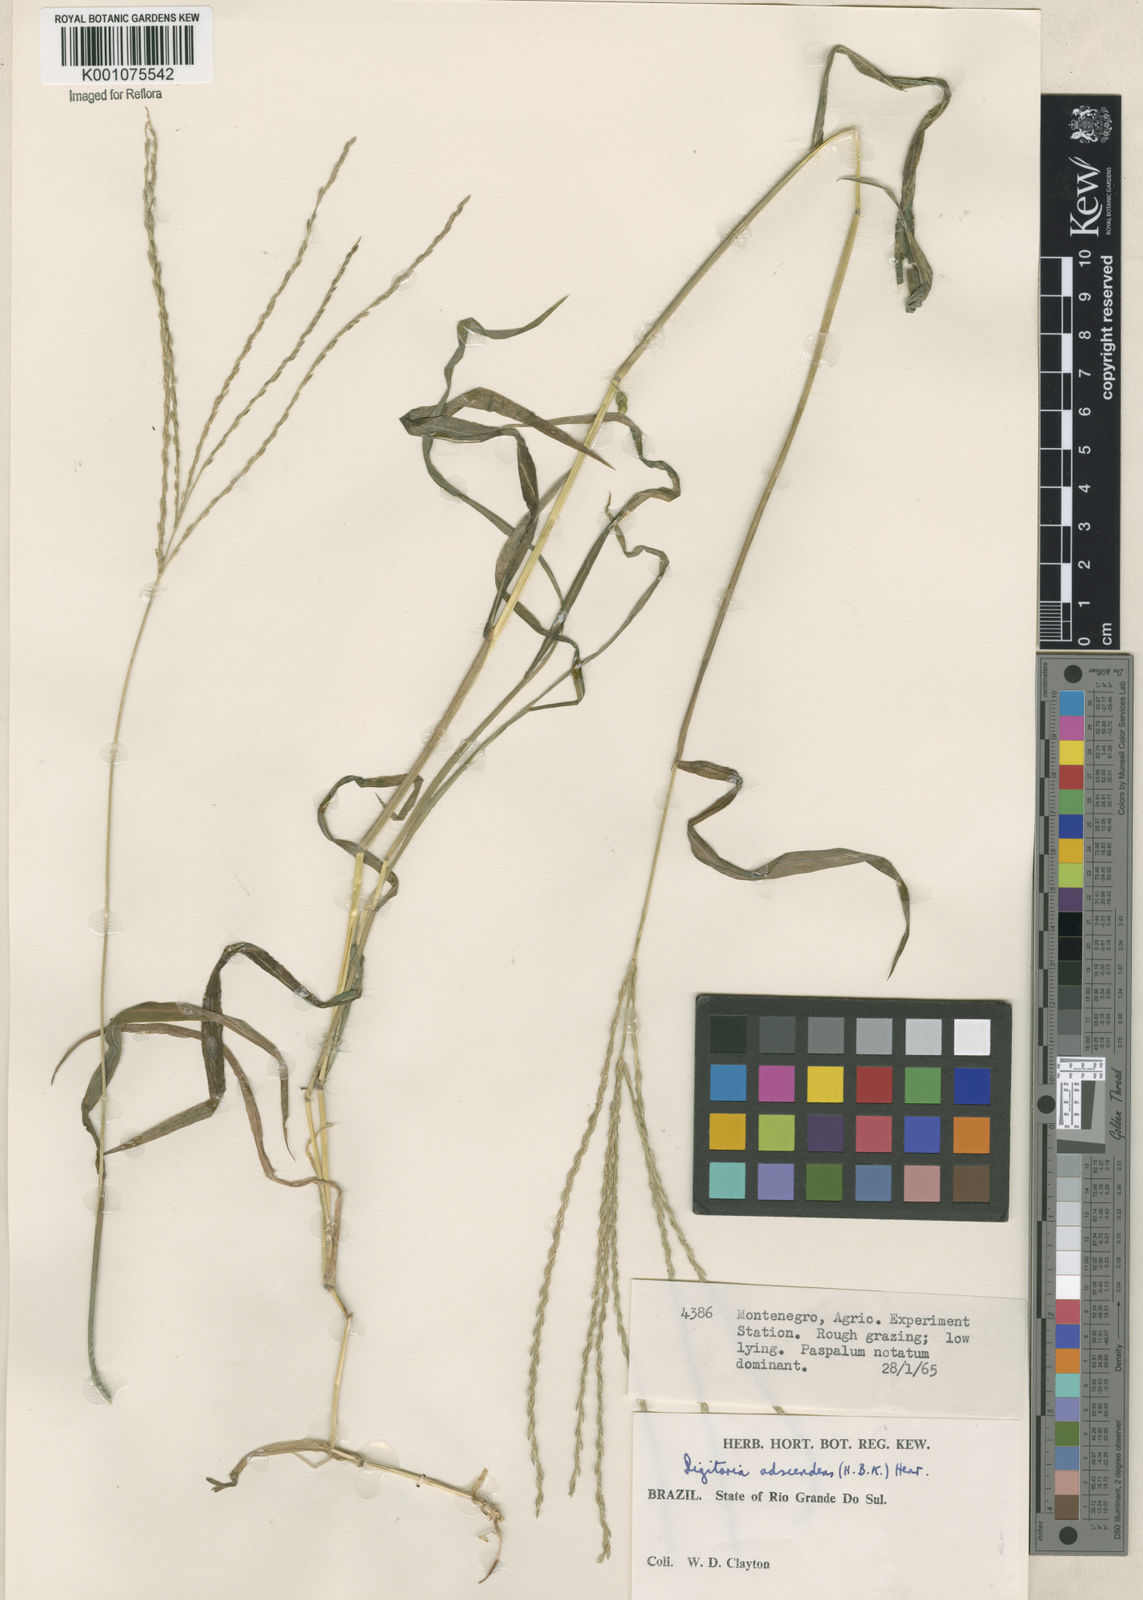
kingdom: Plantae
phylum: Tracheophyta
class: Liliopsida
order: Poales
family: Poaceae
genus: Digitaria
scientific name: Digitaria ciliaris
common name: Tropical finger-grass
